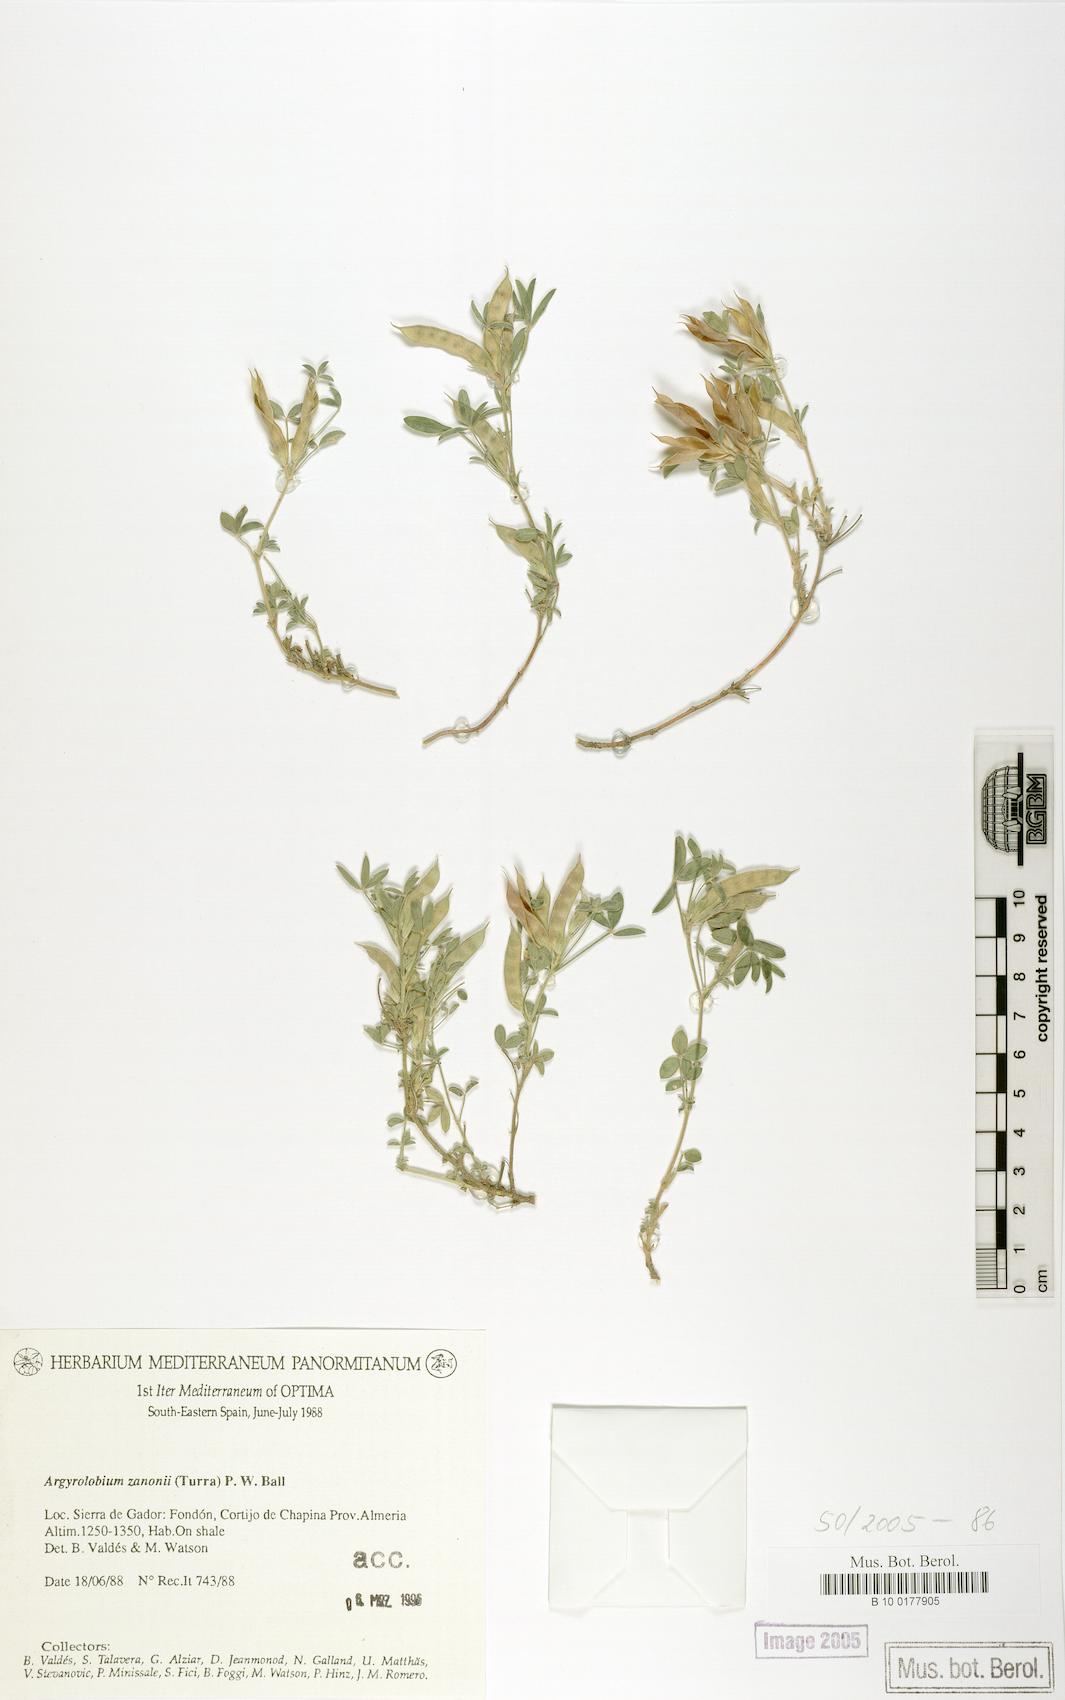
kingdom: Plantae
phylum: Tracheophyta
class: Magnoliopsida
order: Fabales
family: Fabaceae
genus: Argyrolobium
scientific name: Argyrolobium zanonii
